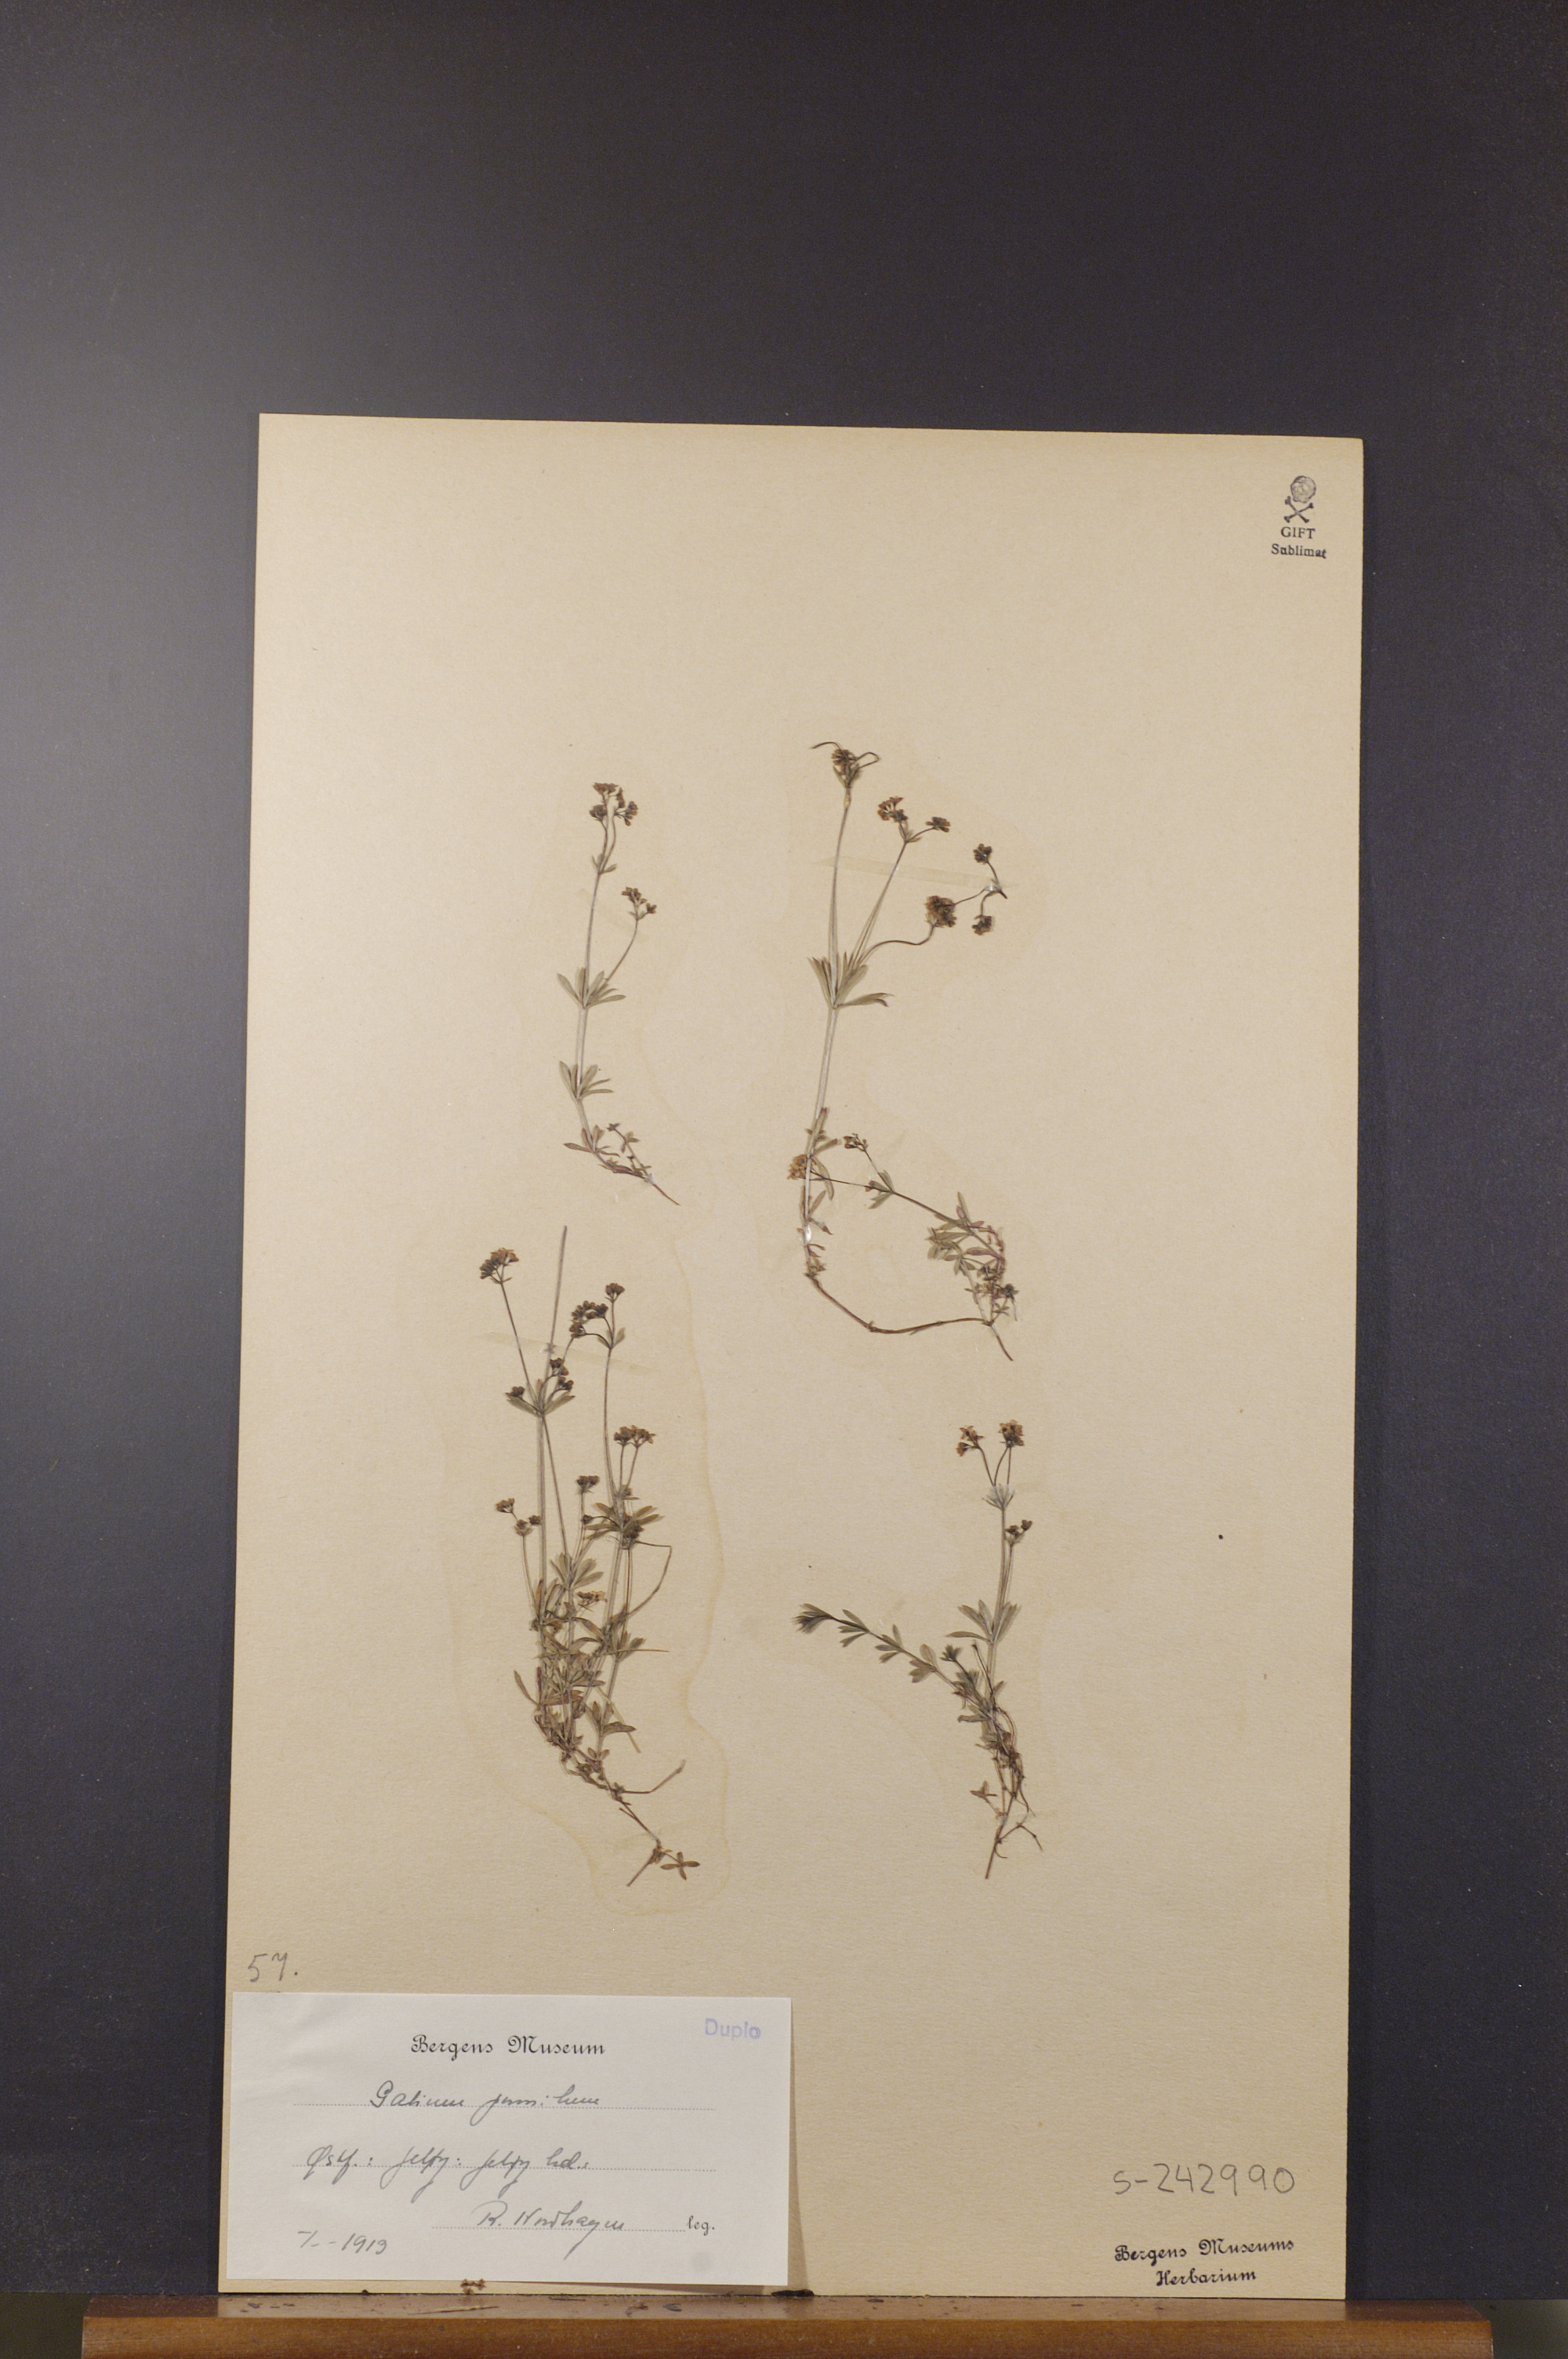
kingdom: Plantae
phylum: Tracheophyta
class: Magnoliopsida
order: Gentianales
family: Rubiaceae
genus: Galium
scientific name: Galium pumilum
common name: Slender bedstraw
